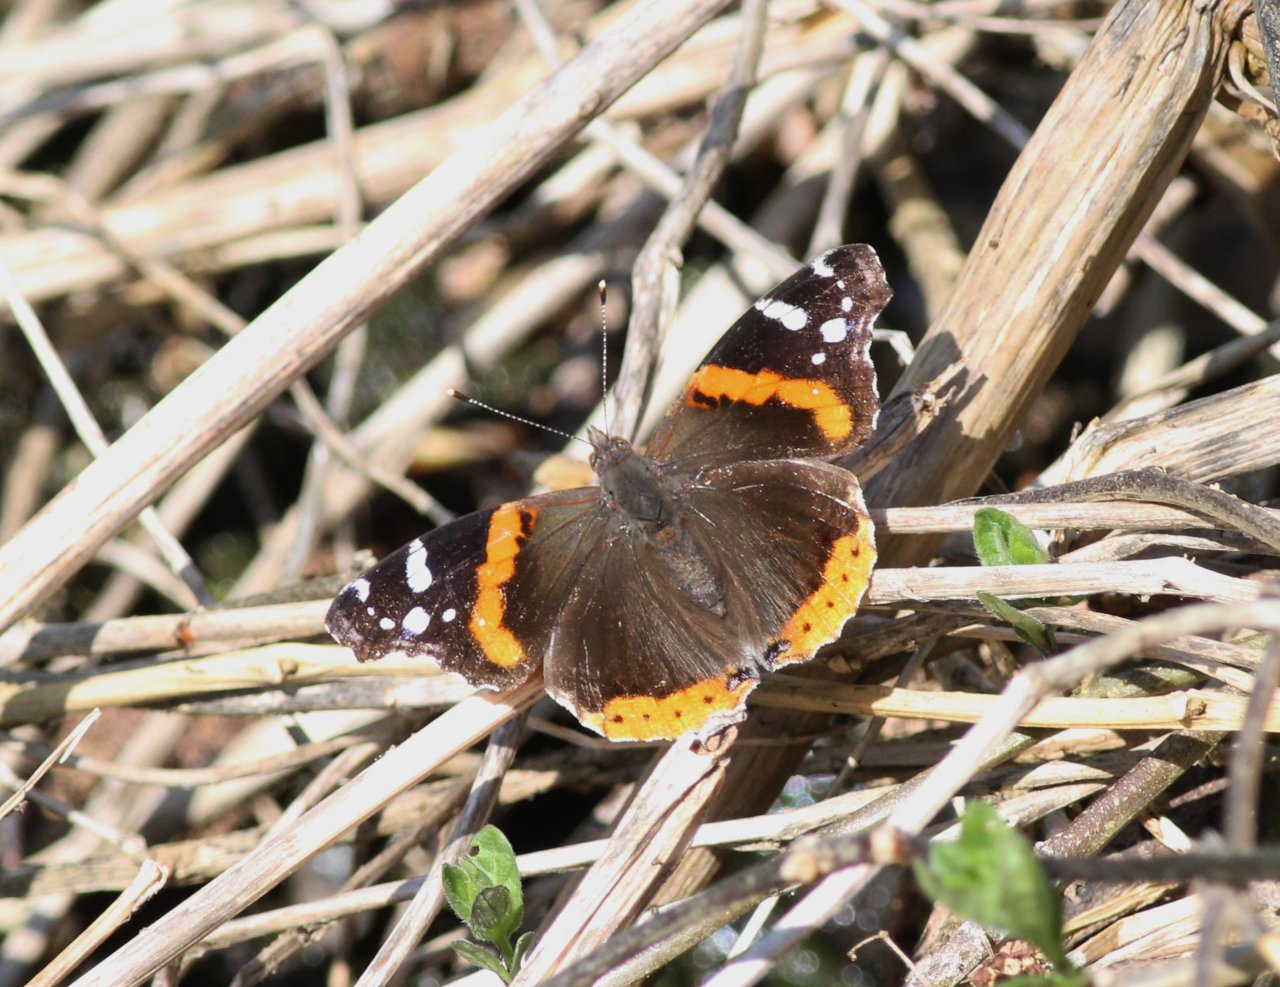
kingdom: Animalia
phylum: Arthropoda
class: Insecta
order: Lepidoptera
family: Nymphalidae
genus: Vanessa
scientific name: Vanessa atalanta
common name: Red Admiral
